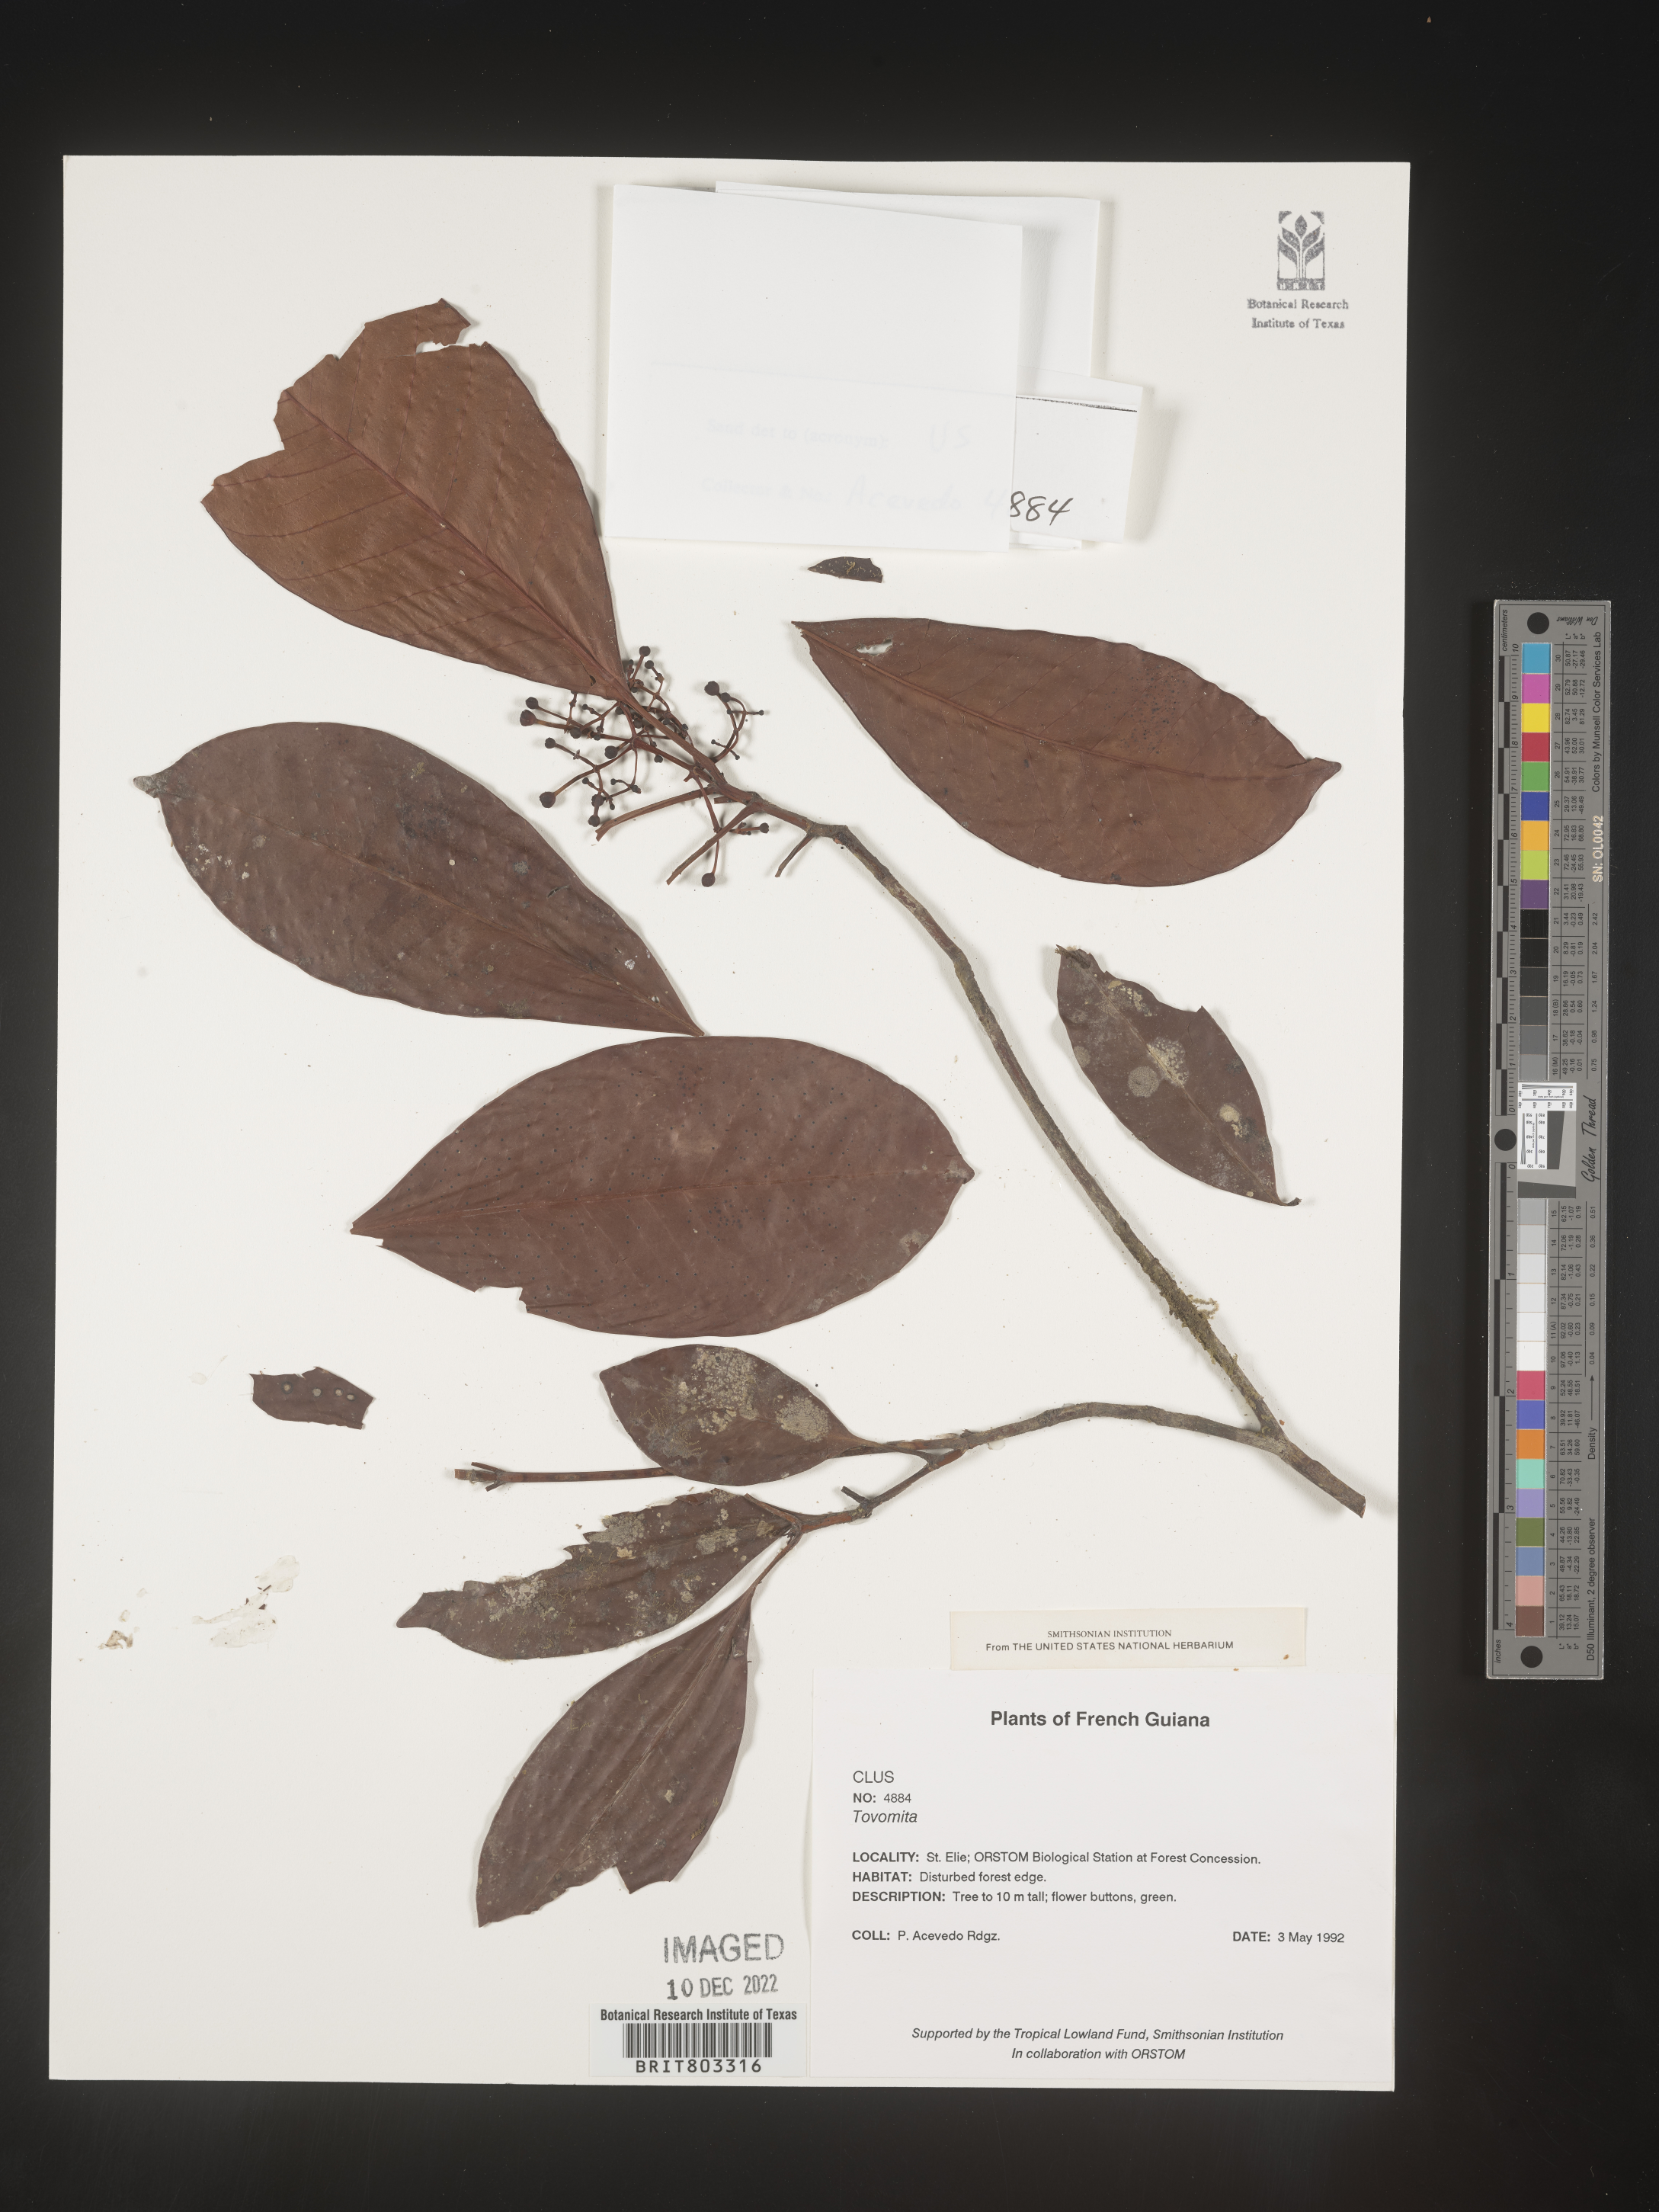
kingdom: Plantae
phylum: Tracheophyta
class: Magnoliopsida
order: Malpighiales
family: Clusiaceae
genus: Tovomita
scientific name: Tovomita
